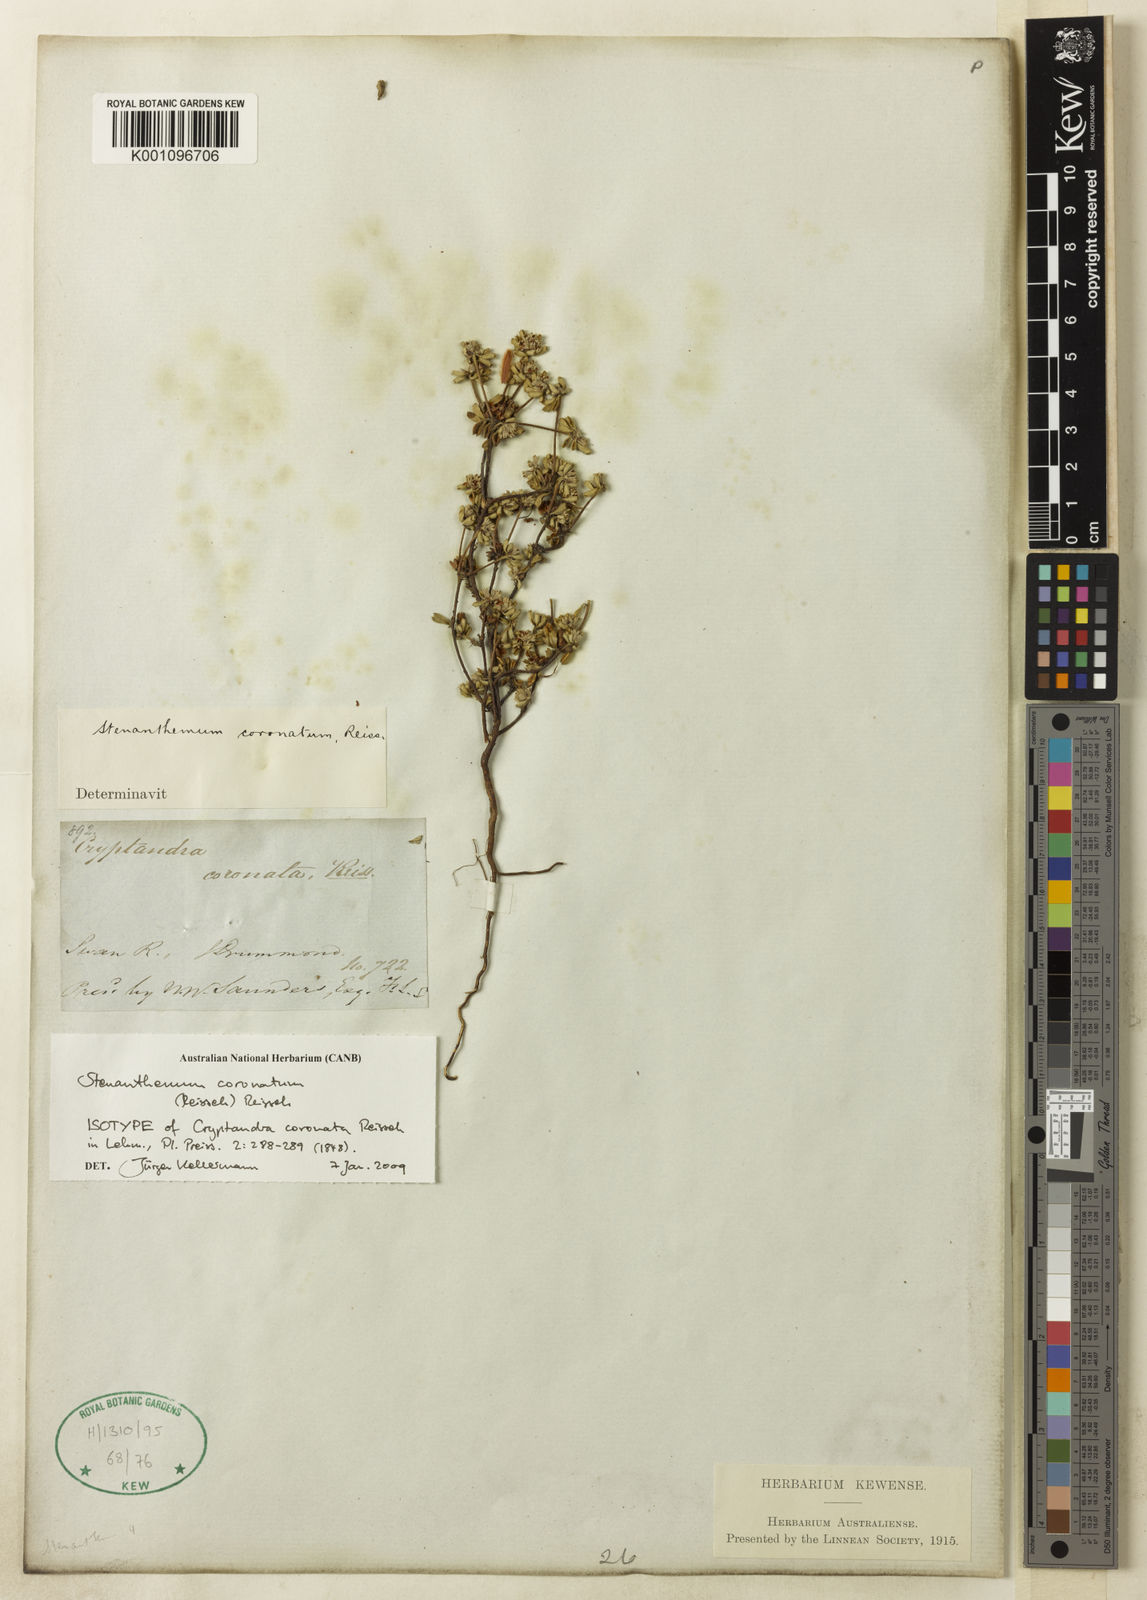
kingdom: Plantae
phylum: Tracheophyta
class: Magnoliopsida
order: Rosales
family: Rhamnaceae
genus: Cryptandra
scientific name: Cryptandra coronata
